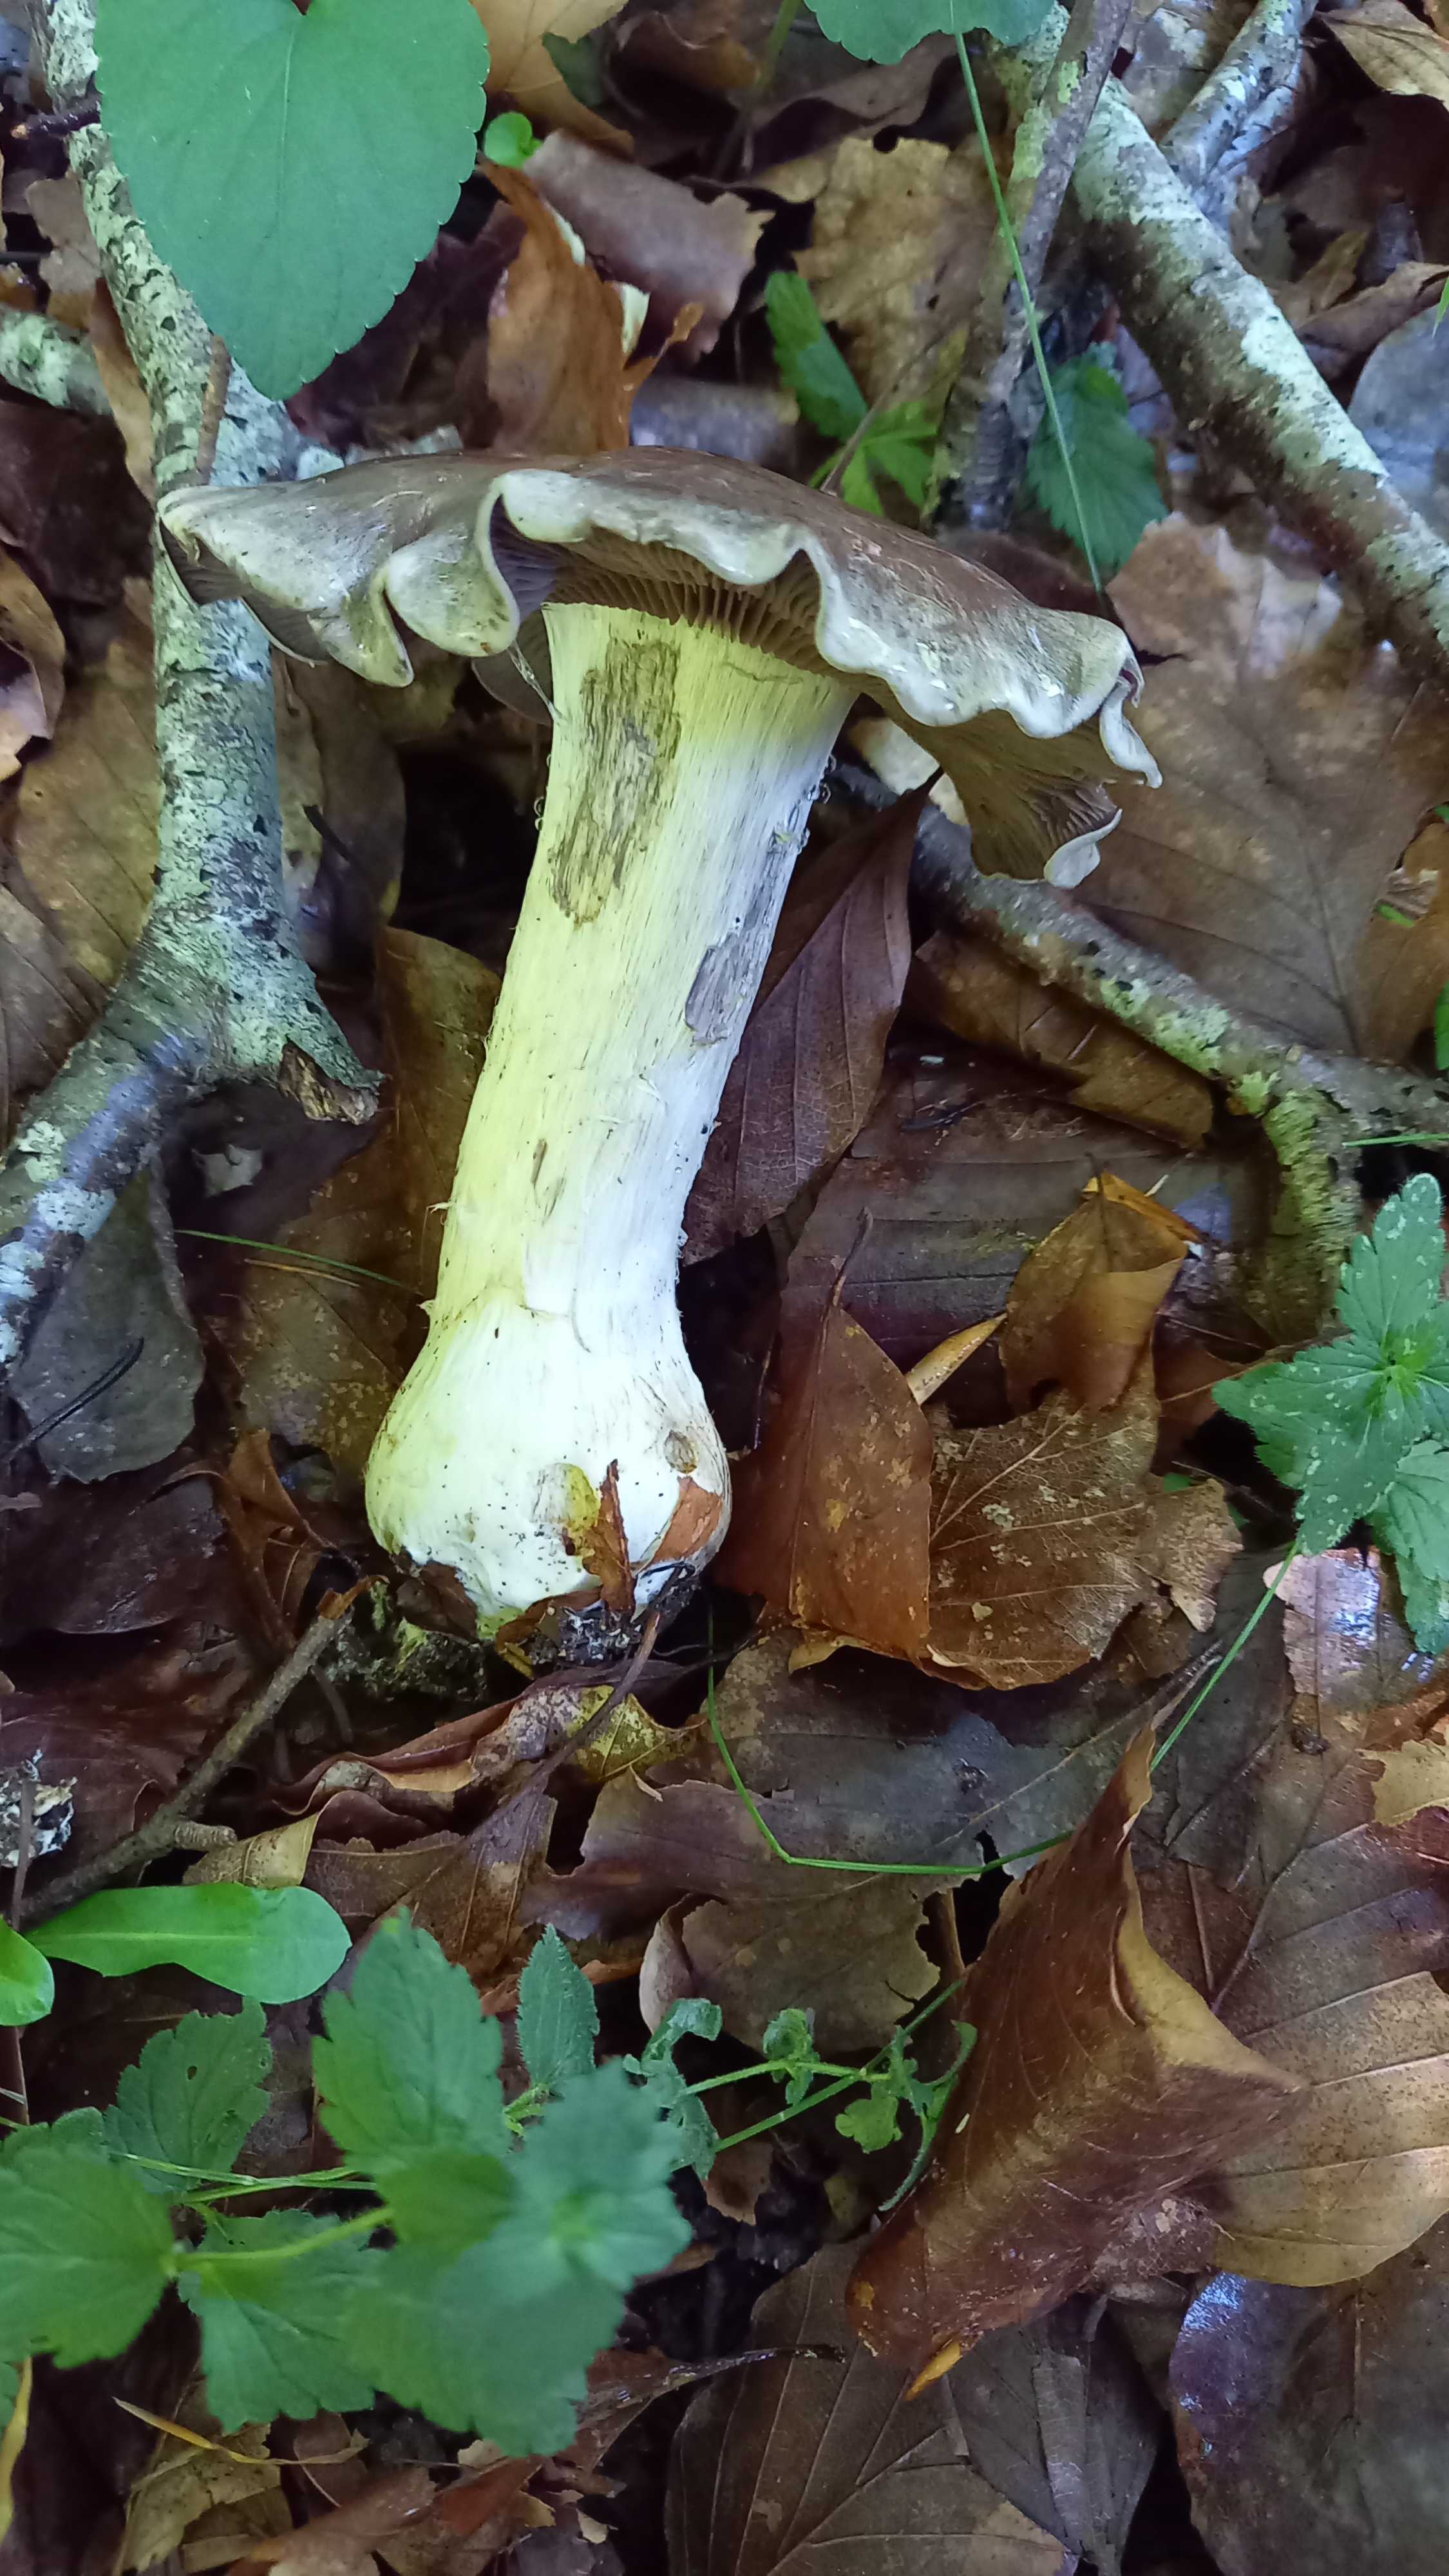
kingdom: Fungi
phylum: Basidiomycota
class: Agaricomycetes
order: Agaricales
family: Cortinariaceae
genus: Cortinarius
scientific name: Cortinarius
